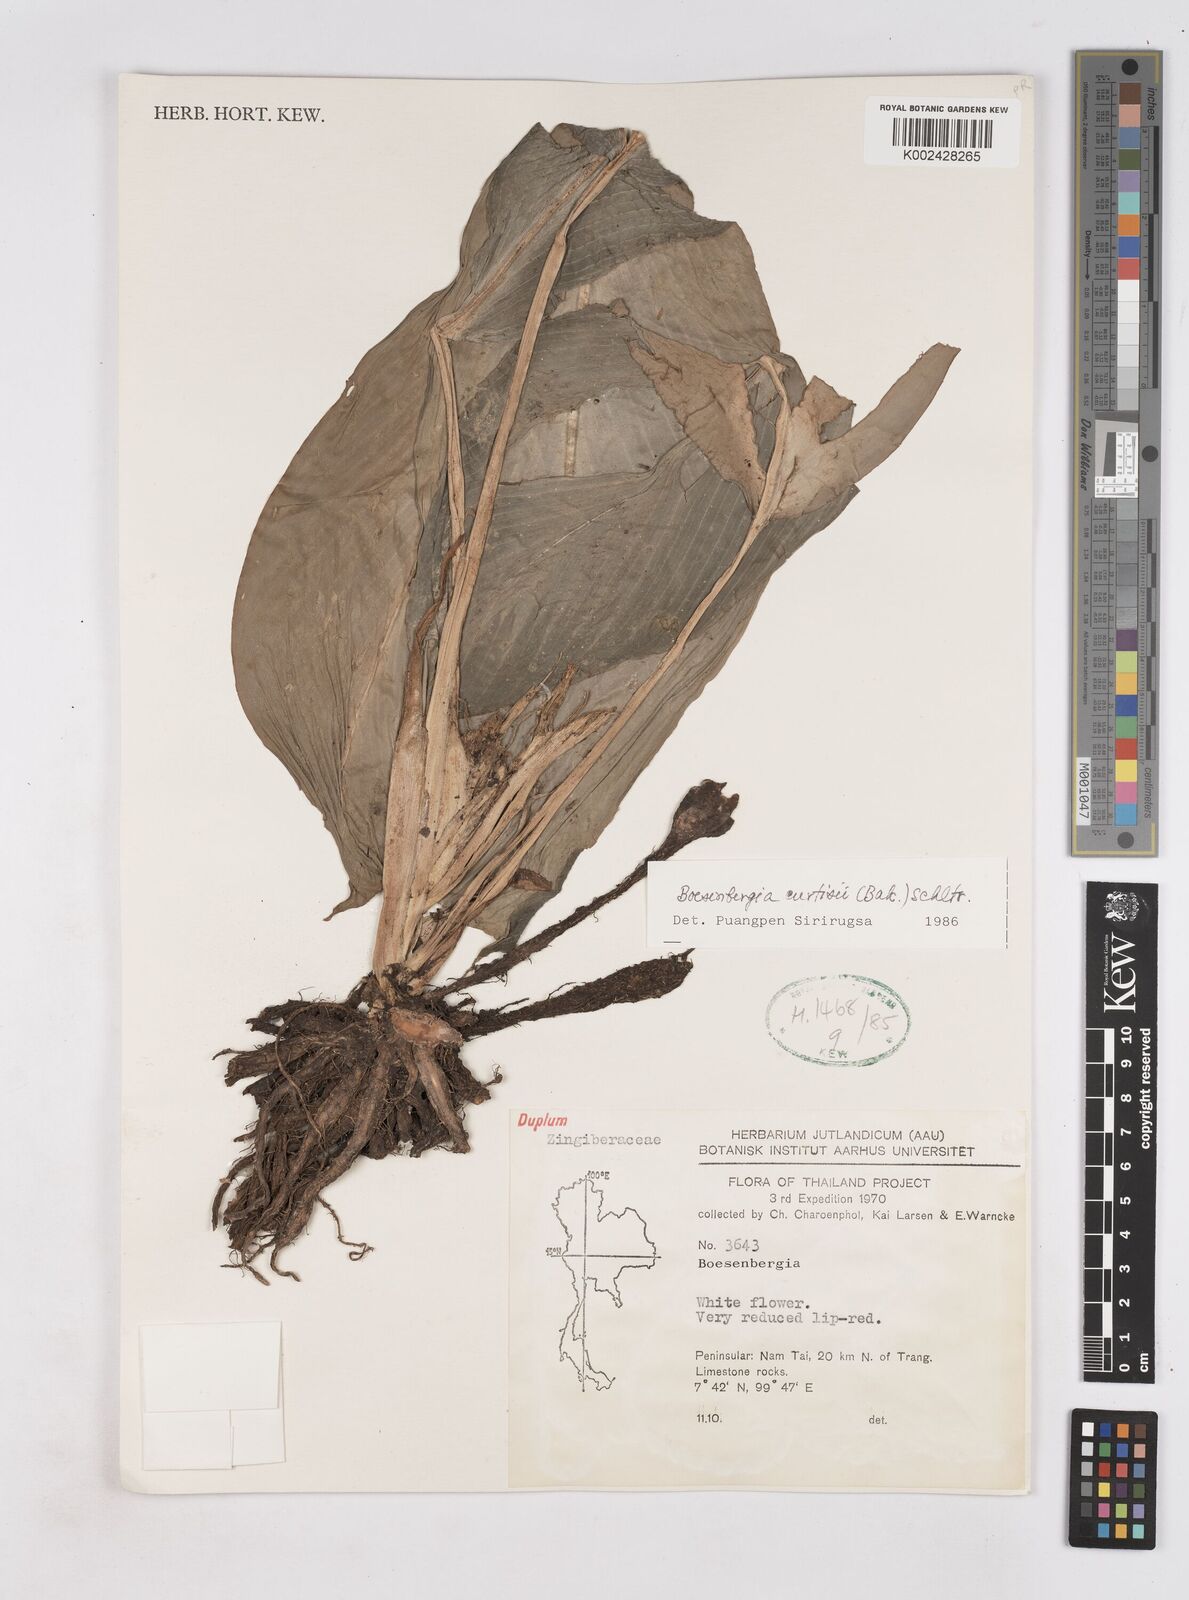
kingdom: Plantae
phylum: Tracheophyta
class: Liliopsida
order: Zingiberales
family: Zingiberaceae
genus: Boesenbergia
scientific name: Boesenbergia curtisii
